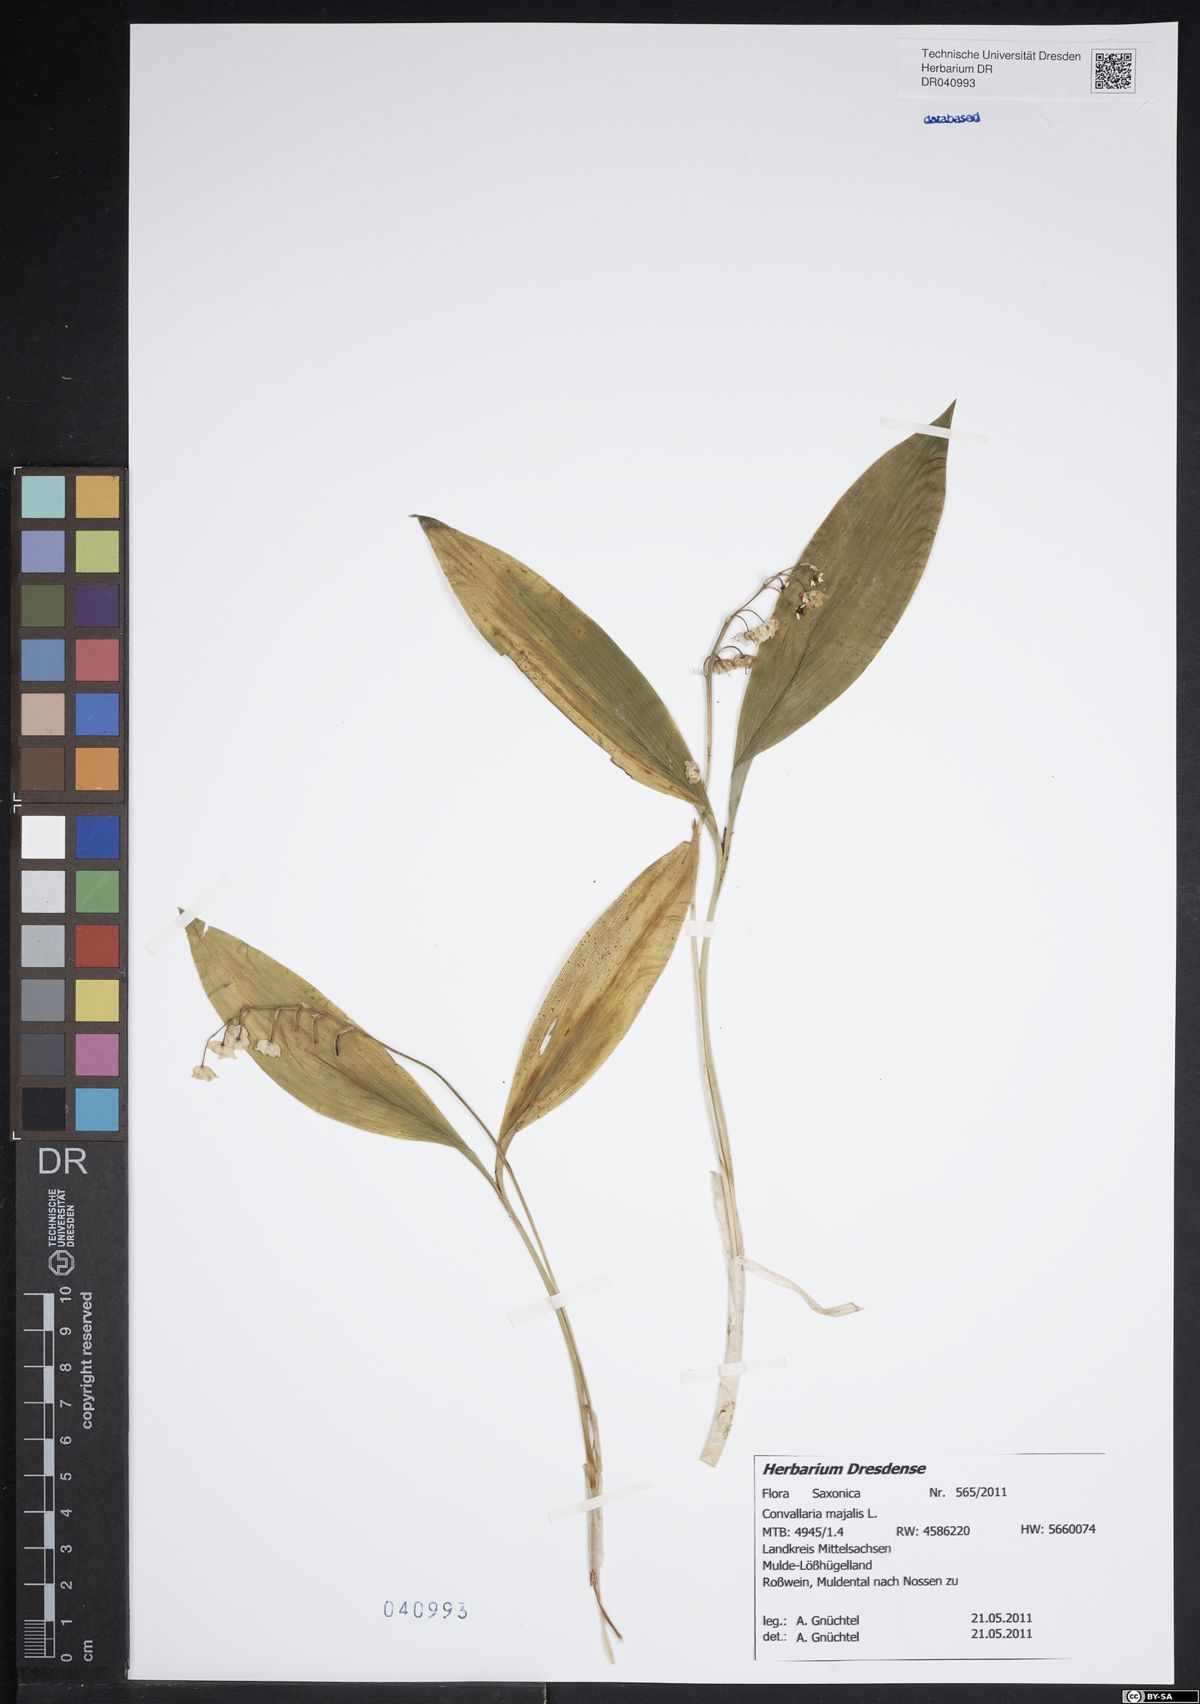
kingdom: Plantae
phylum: Tracheophyta
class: Liliopsida
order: Asparagales
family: Asparagaceae
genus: Convallaria
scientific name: Convallaria majalis
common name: Lily-of-the-valley
